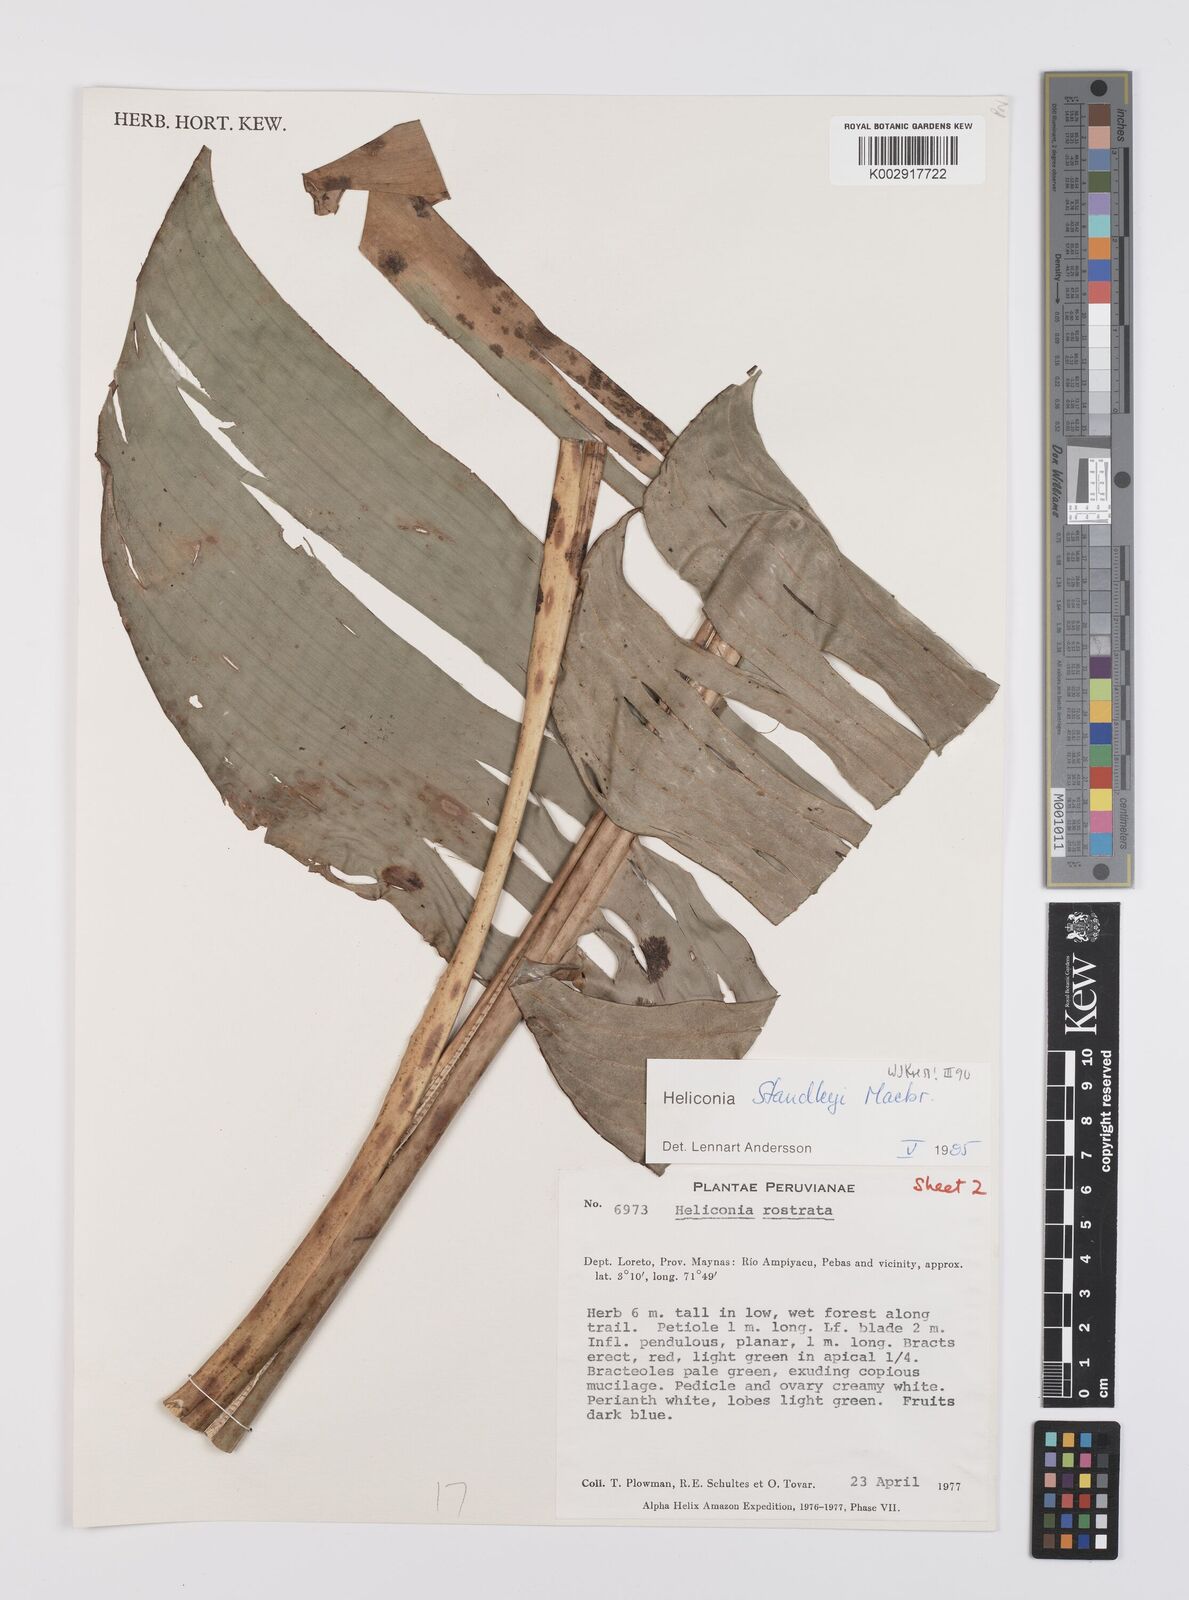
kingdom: Plantae
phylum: Tracheophyta
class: Liliopsida
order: Zingiberales
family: Heliconiaceae
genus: Heliconia
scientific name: Heliconia standleyi
